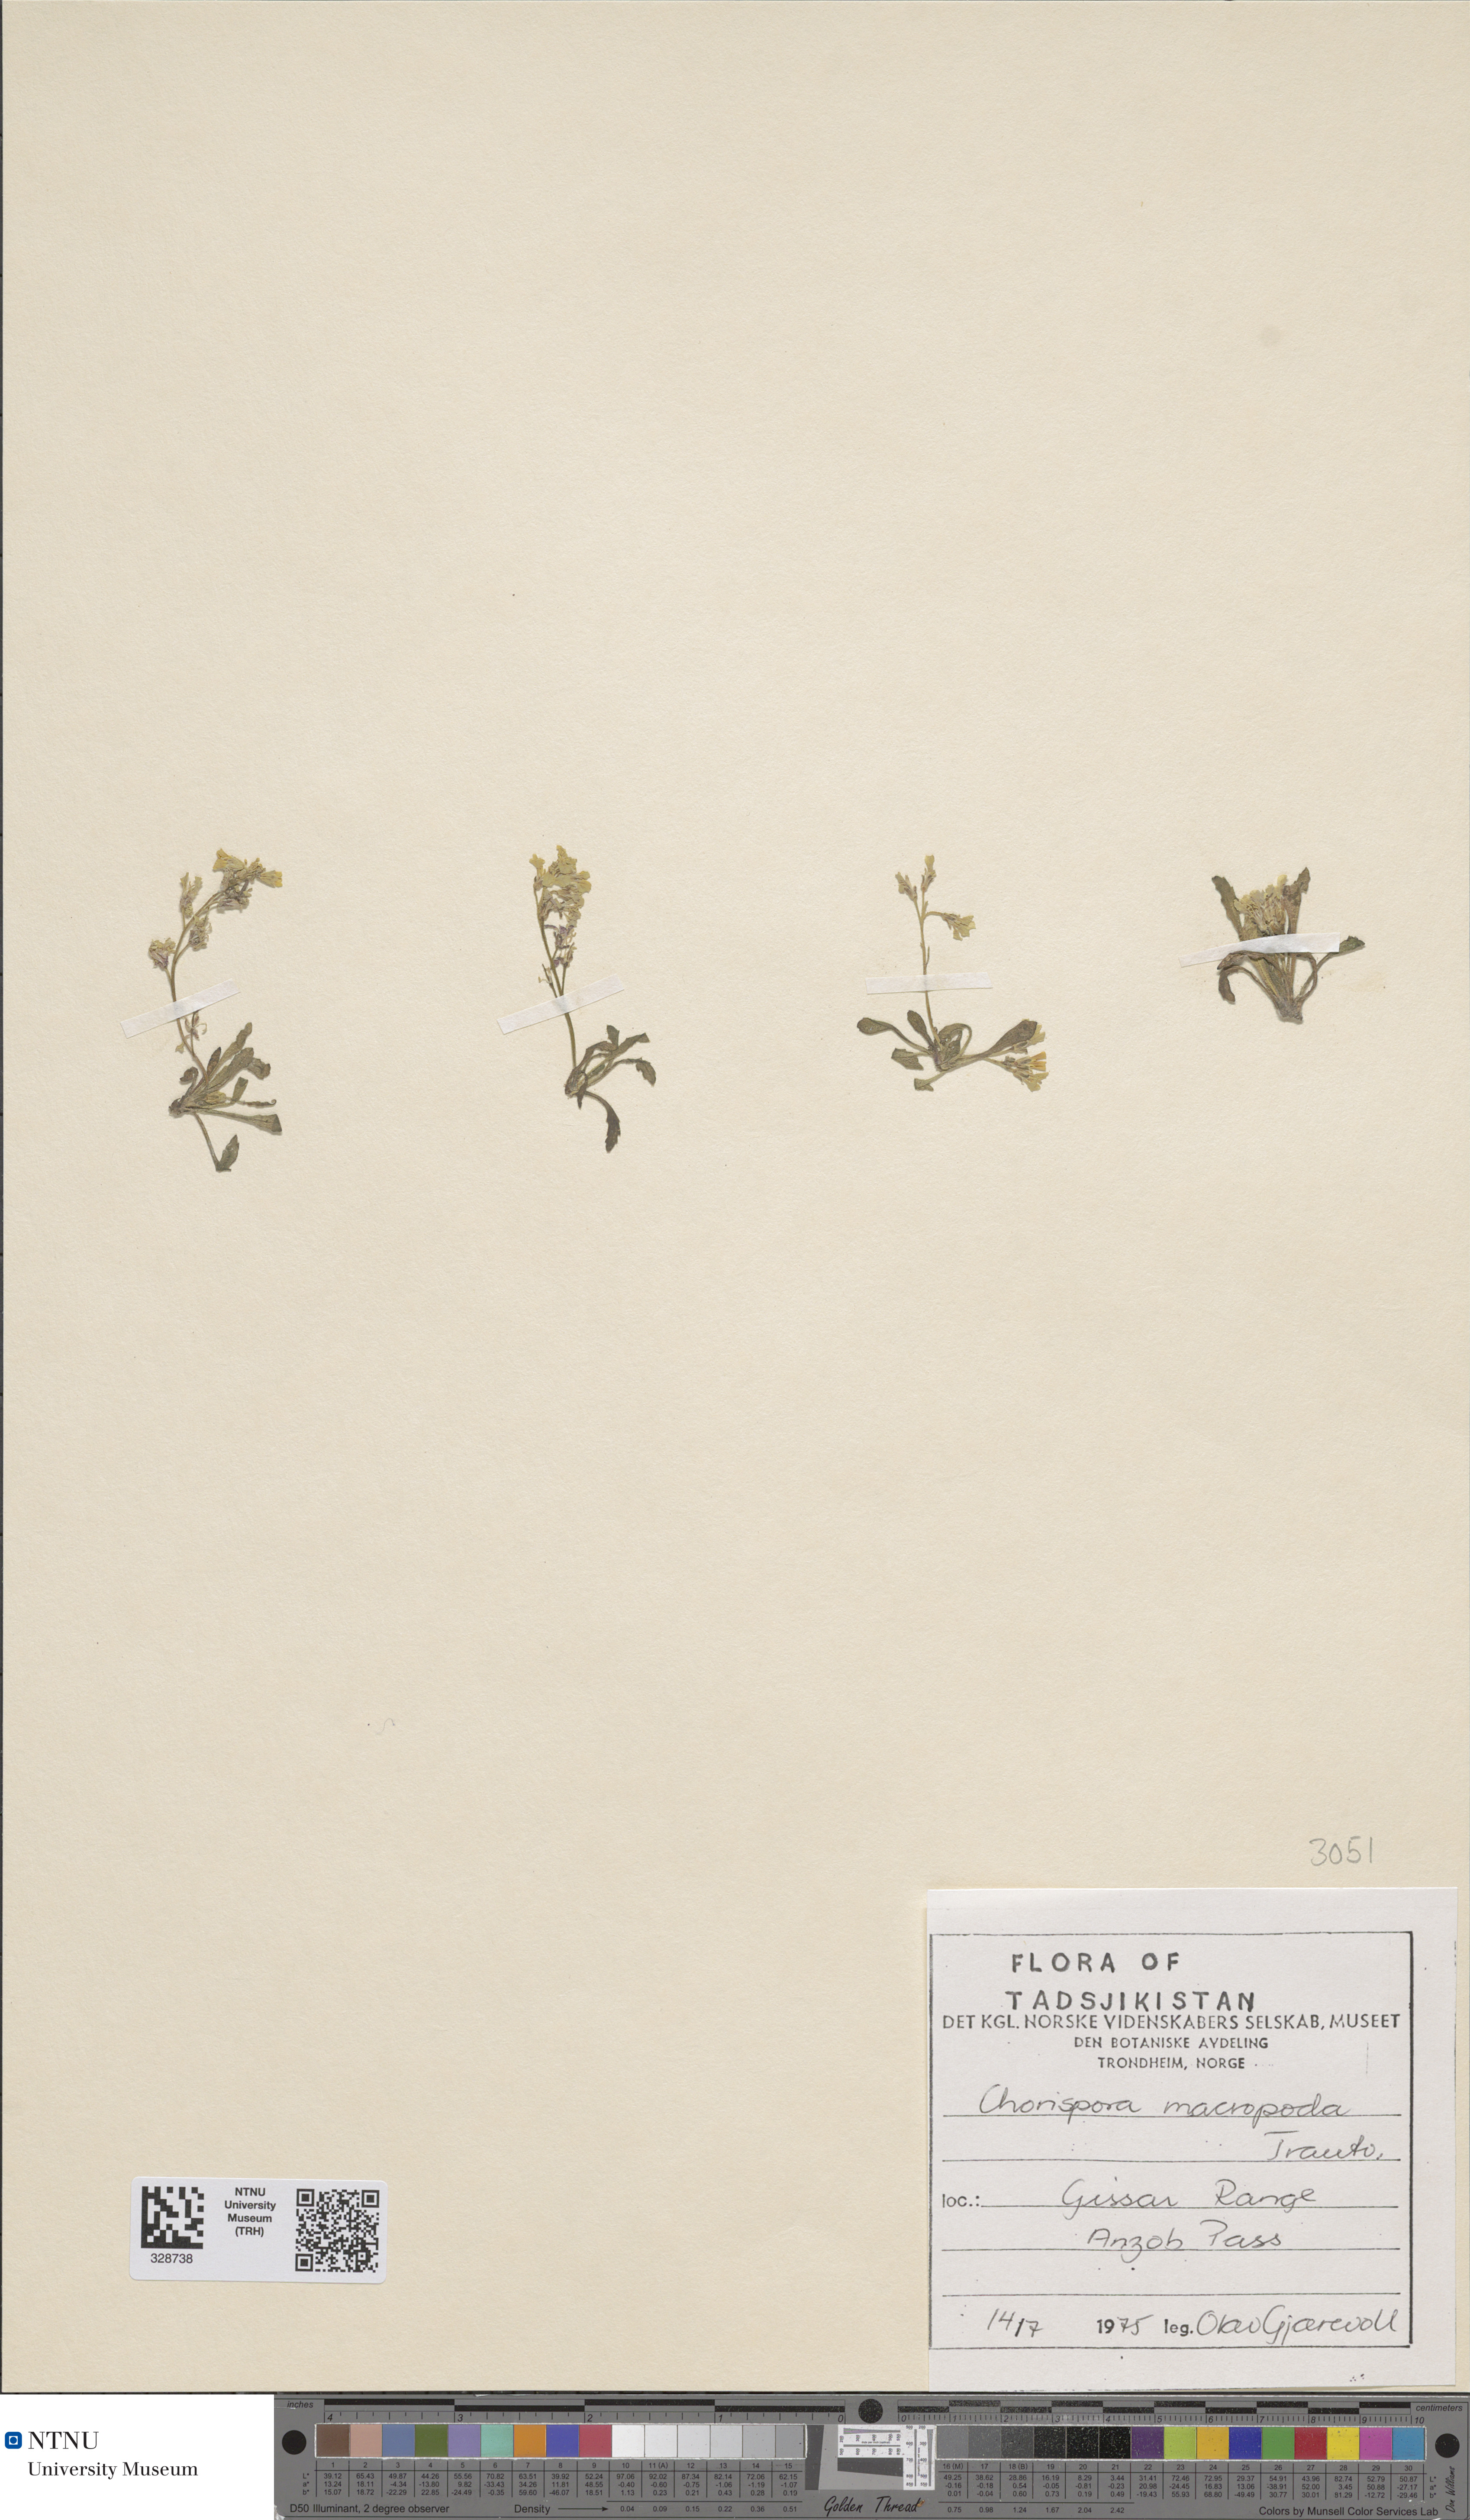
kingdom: Plantae
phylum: Tracheophyta
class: Magnoliopsida
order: Brassicales
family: Brassicaceae
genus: Chorispora
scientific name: Chorispora macropoda
